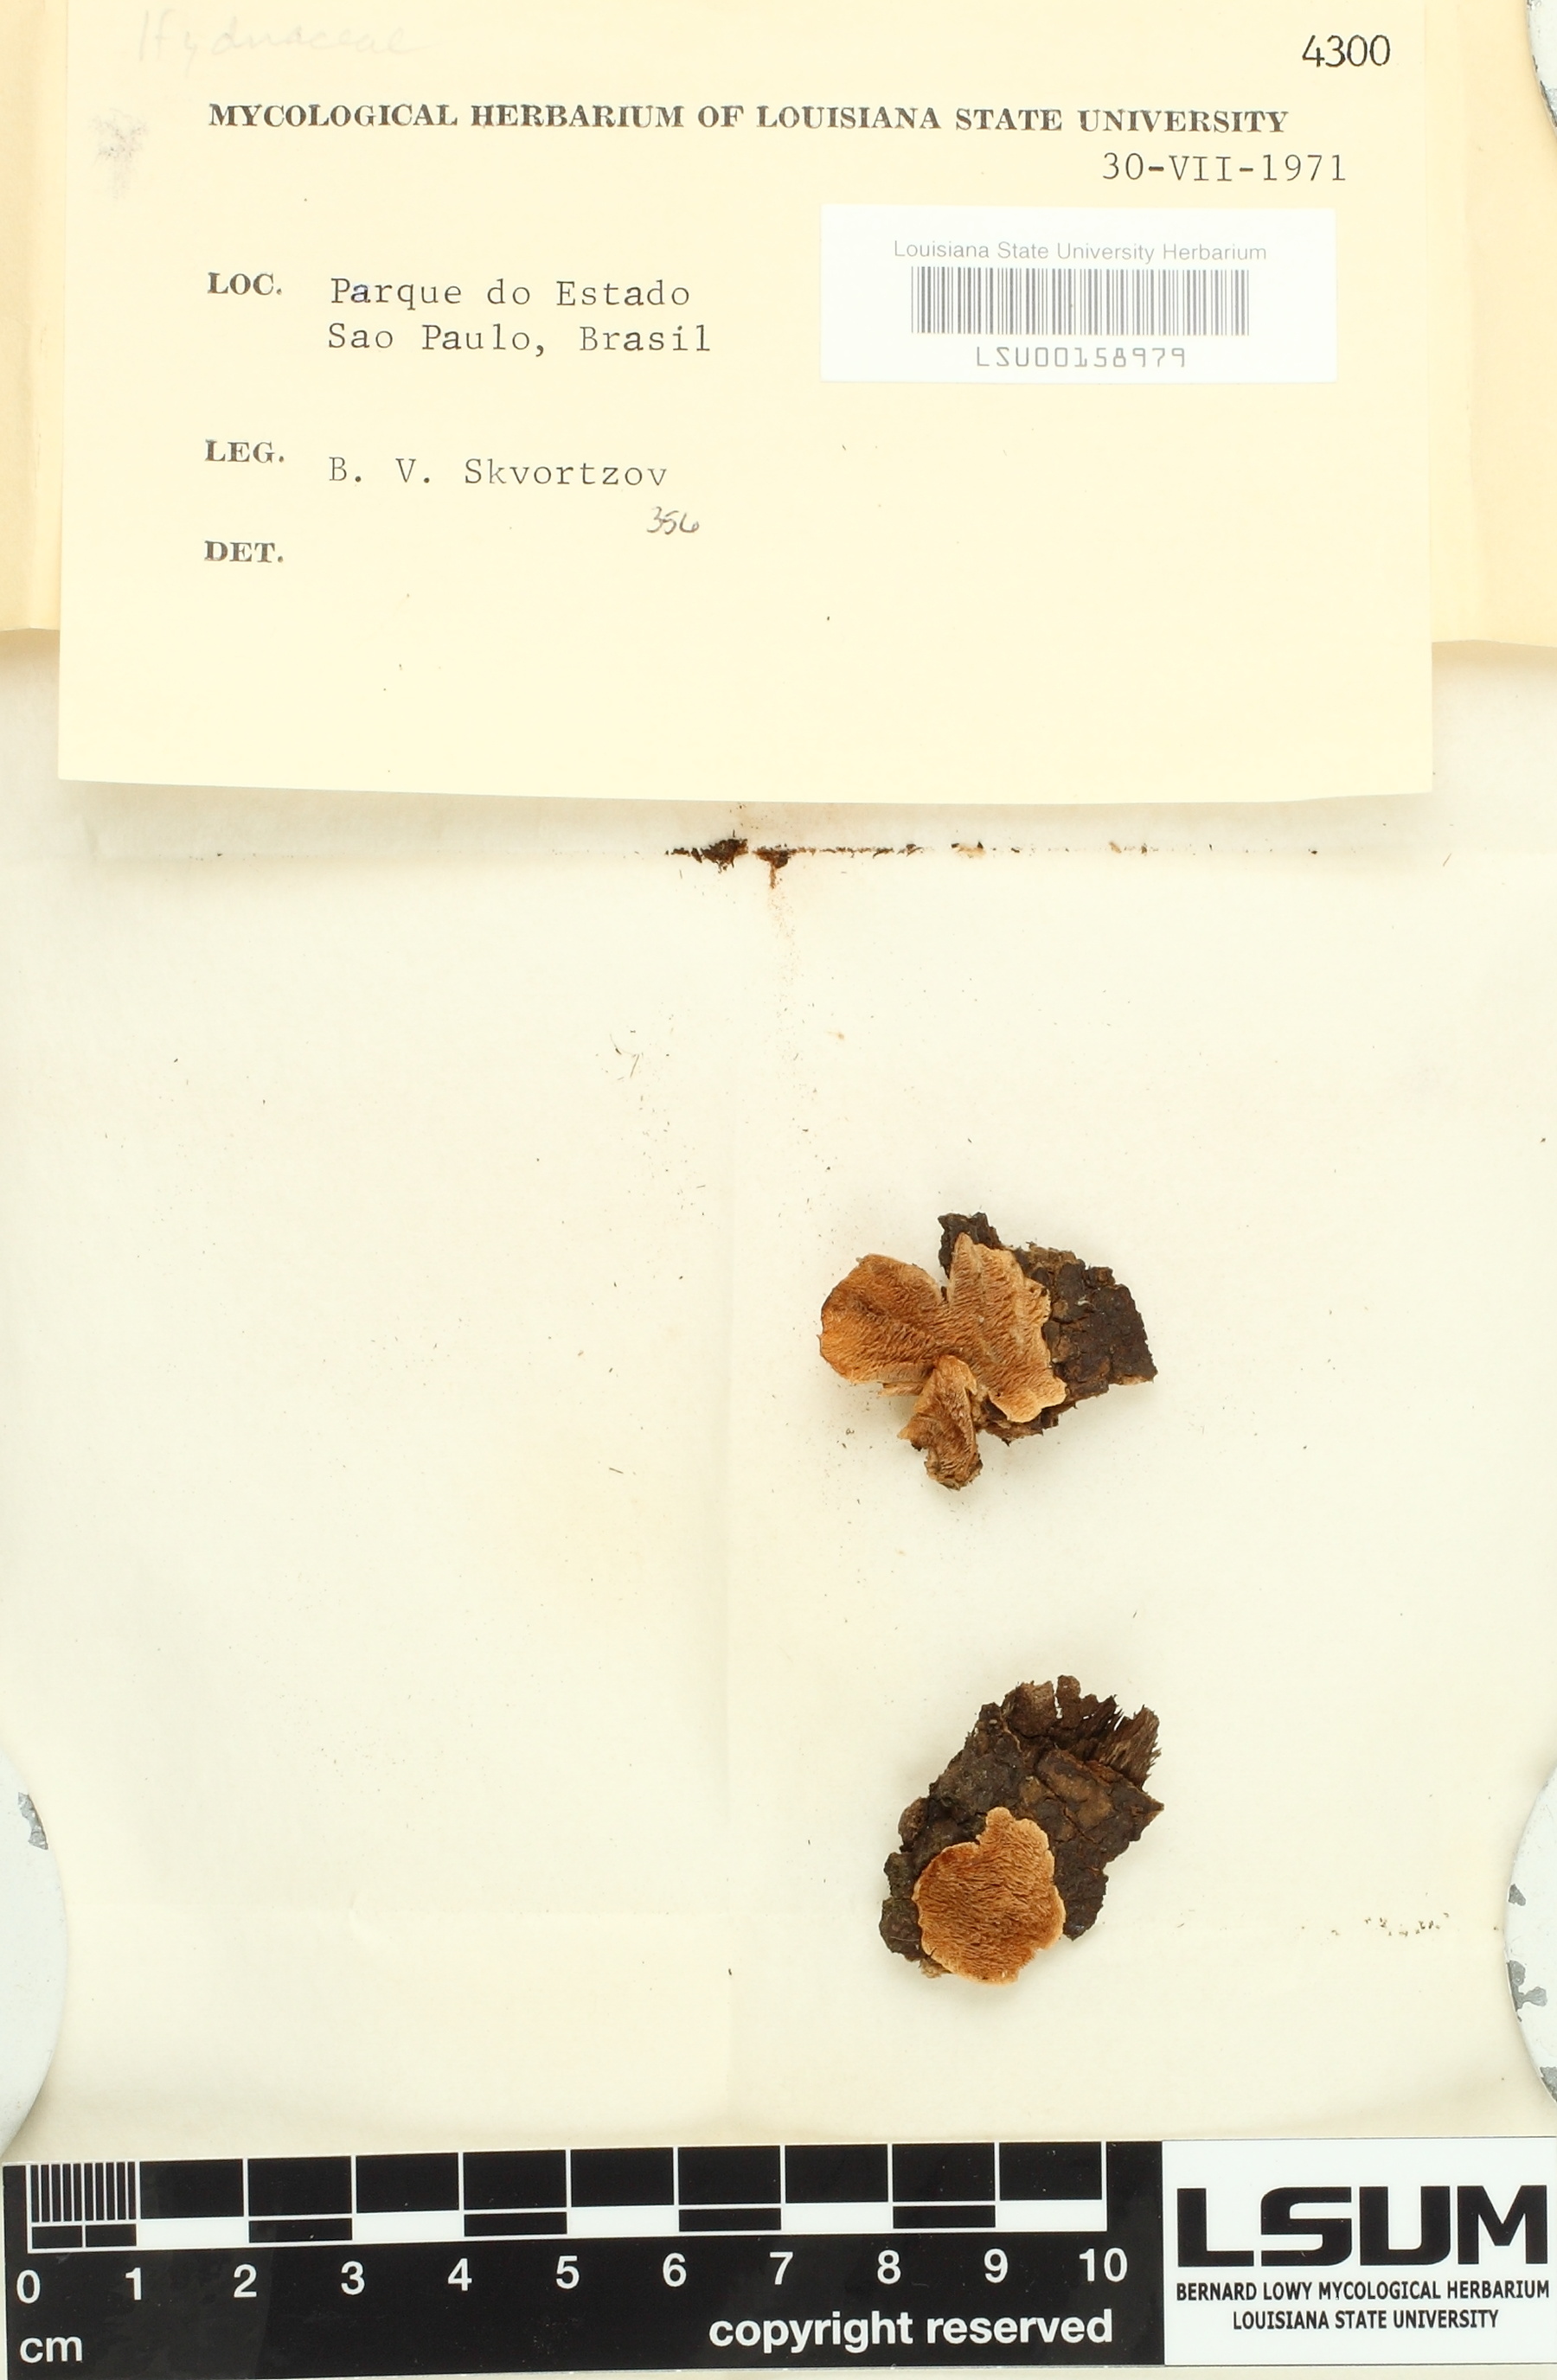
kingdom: Fungi
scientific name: Fungi
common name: Fungi
